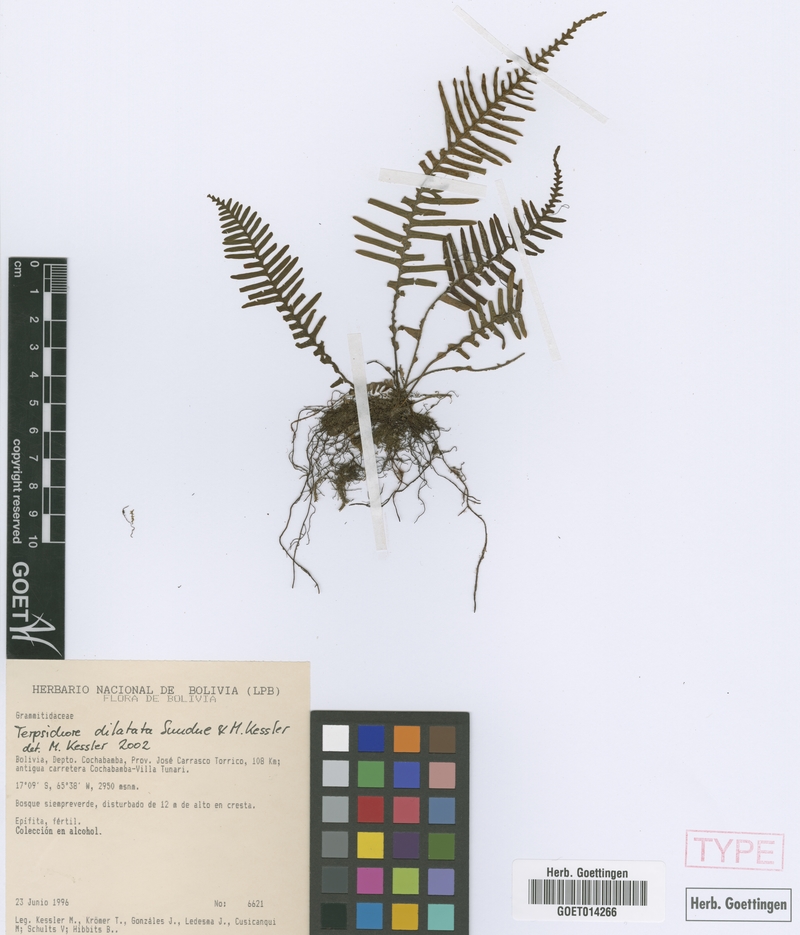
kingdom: Plantae
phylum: Tracheophyta
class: Polypodiopsida
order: Polypodiales
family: Polypodiaceae
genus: Ascogrammitis
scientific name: Ascogrammitis dilatata
